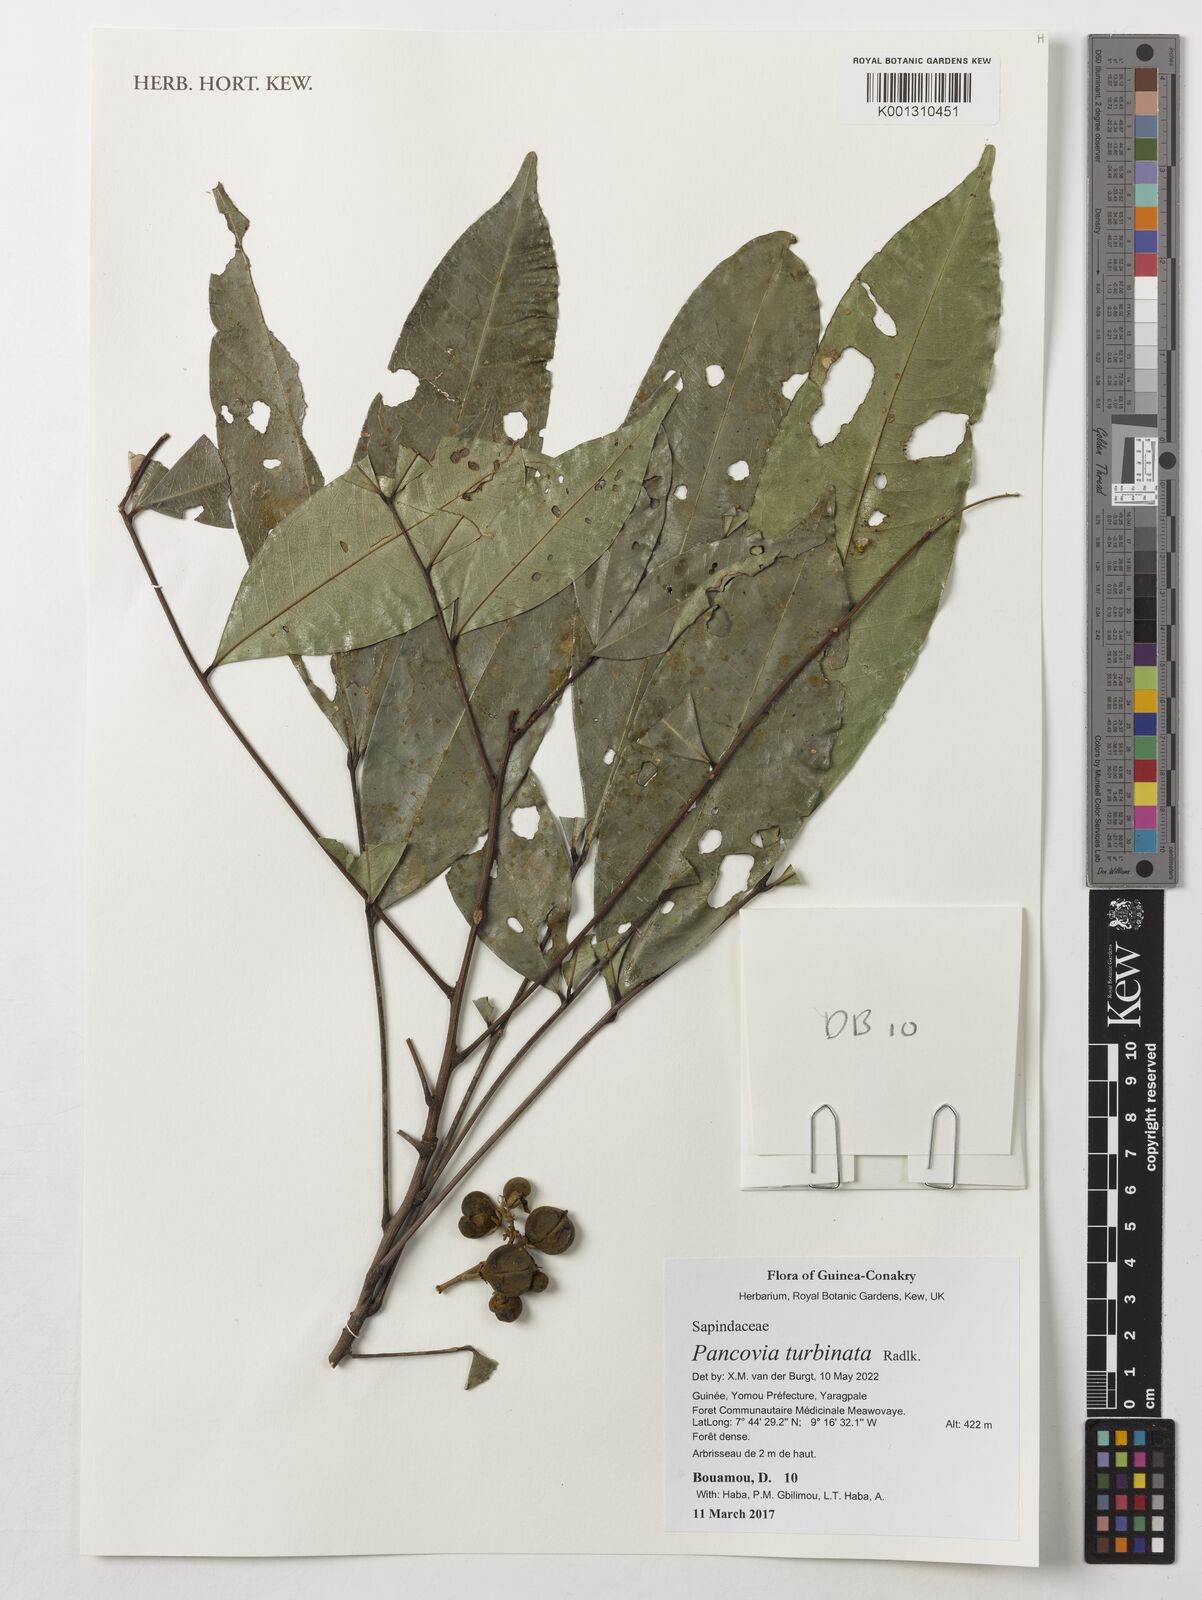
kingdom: Plantae
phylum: Tracheophyta
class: Magnoliopsida
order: Sapindales
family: Sapindaceae
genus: Pancovia
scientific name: Pancovia turbinata
